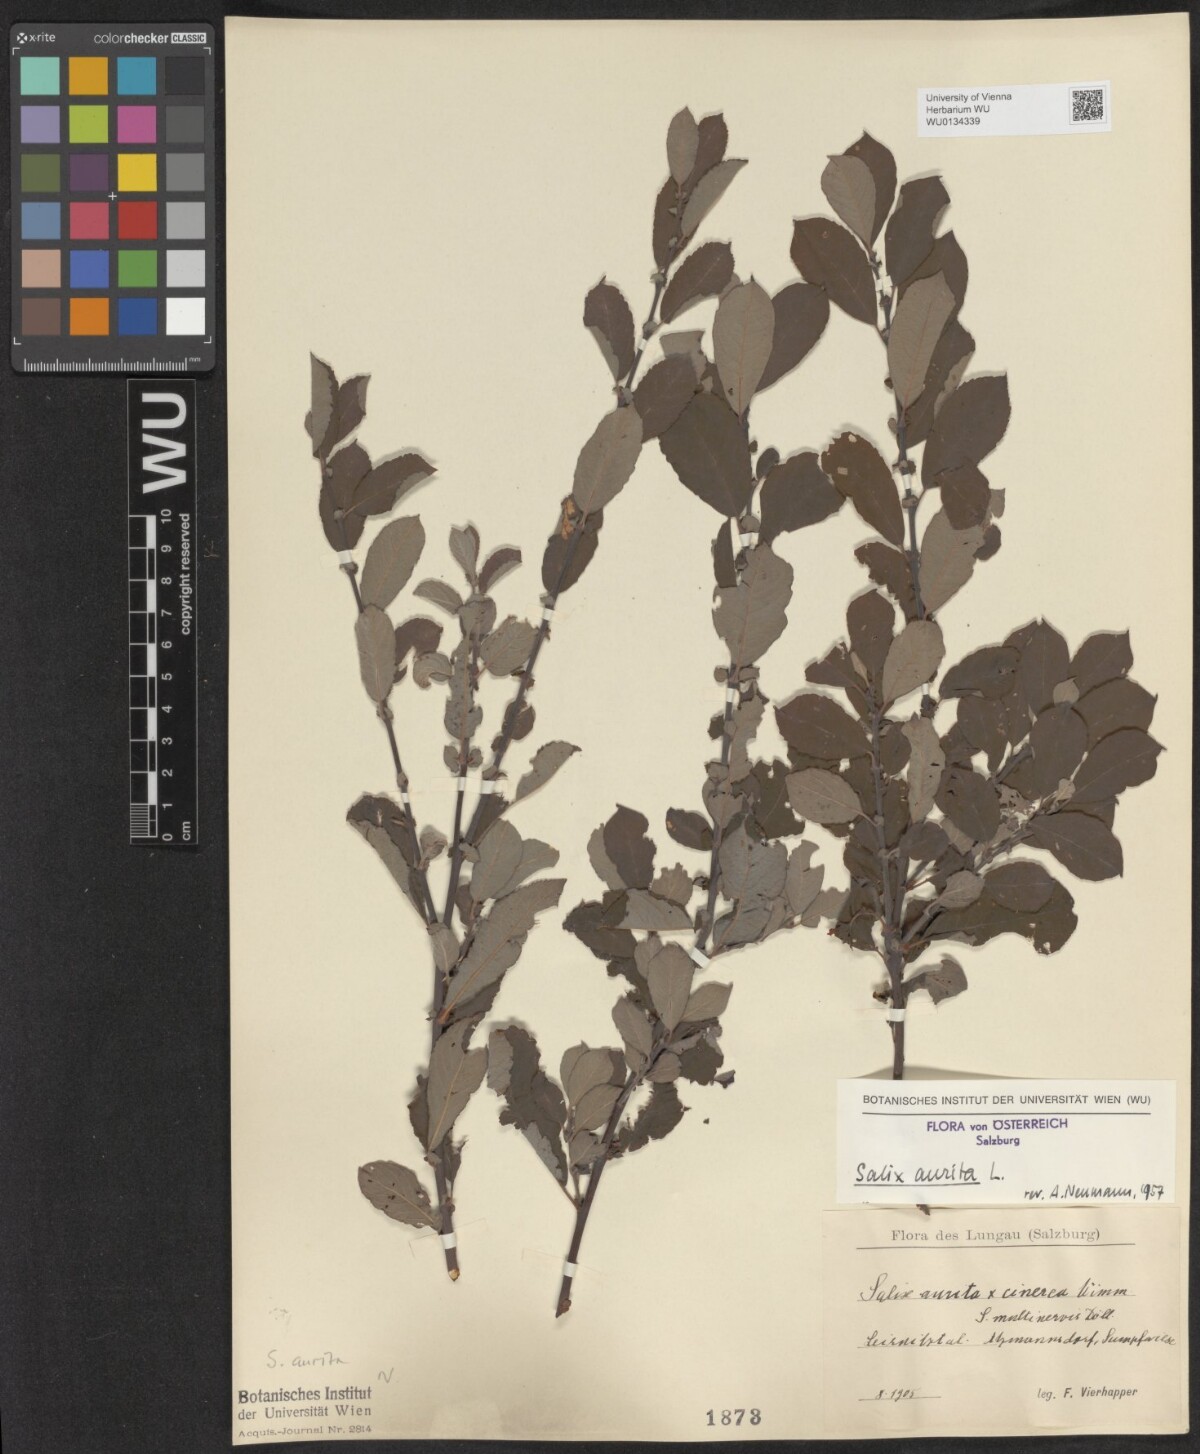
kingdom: Plantae
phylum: Tracheophyta
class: Magnoliopsida
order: Malpighiales
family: Salicaceae
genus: Salix
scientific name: Salix aurita
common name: Eared willow
